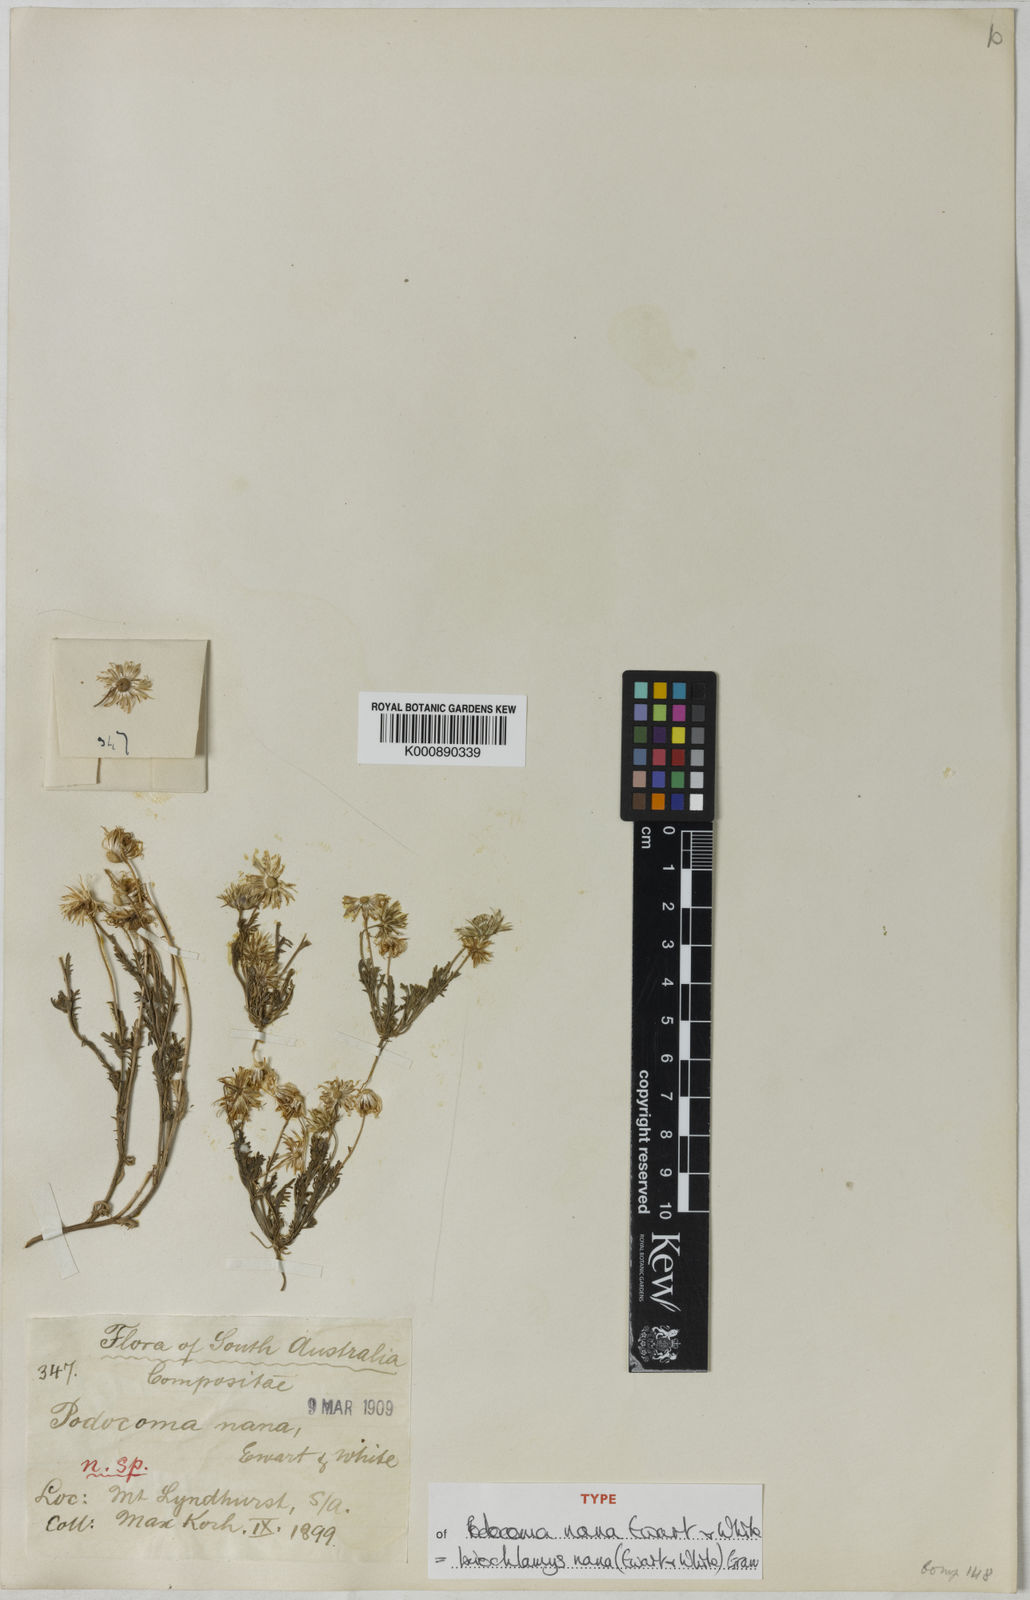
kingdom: Plantae
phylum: Tracheophyta
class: Magnoliopsida
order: Asterales
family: Asteraceae
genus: Ixiochlamys
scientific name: Ixiochlamys nana
